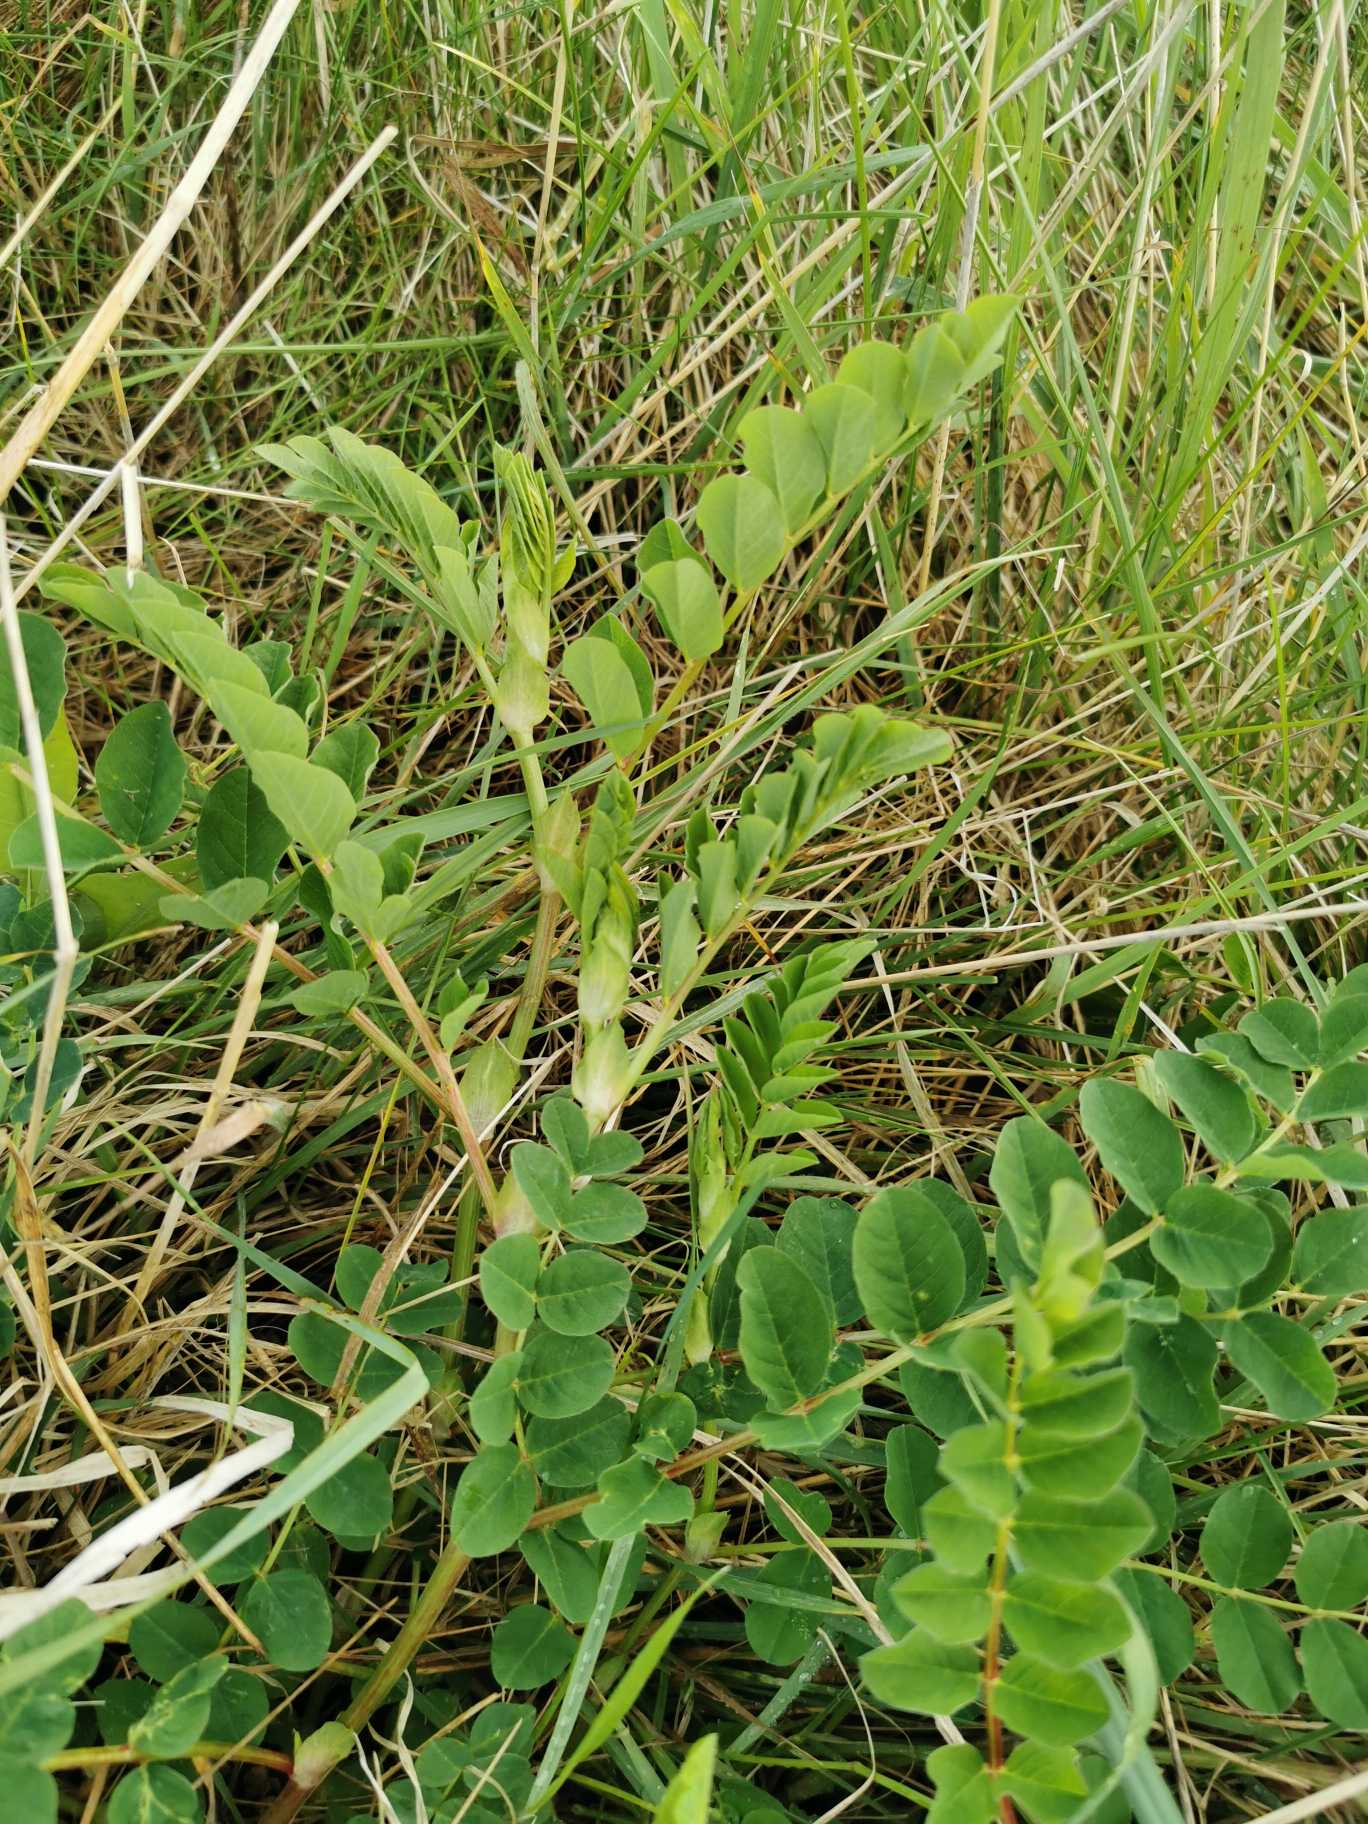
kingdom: Plantae
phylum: Tracheophyta
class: Magnoliopsida
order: Fabales
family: Fabaceae
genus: Astragalus
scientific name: Astragalus glycyphyllos
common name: Sød astragel
